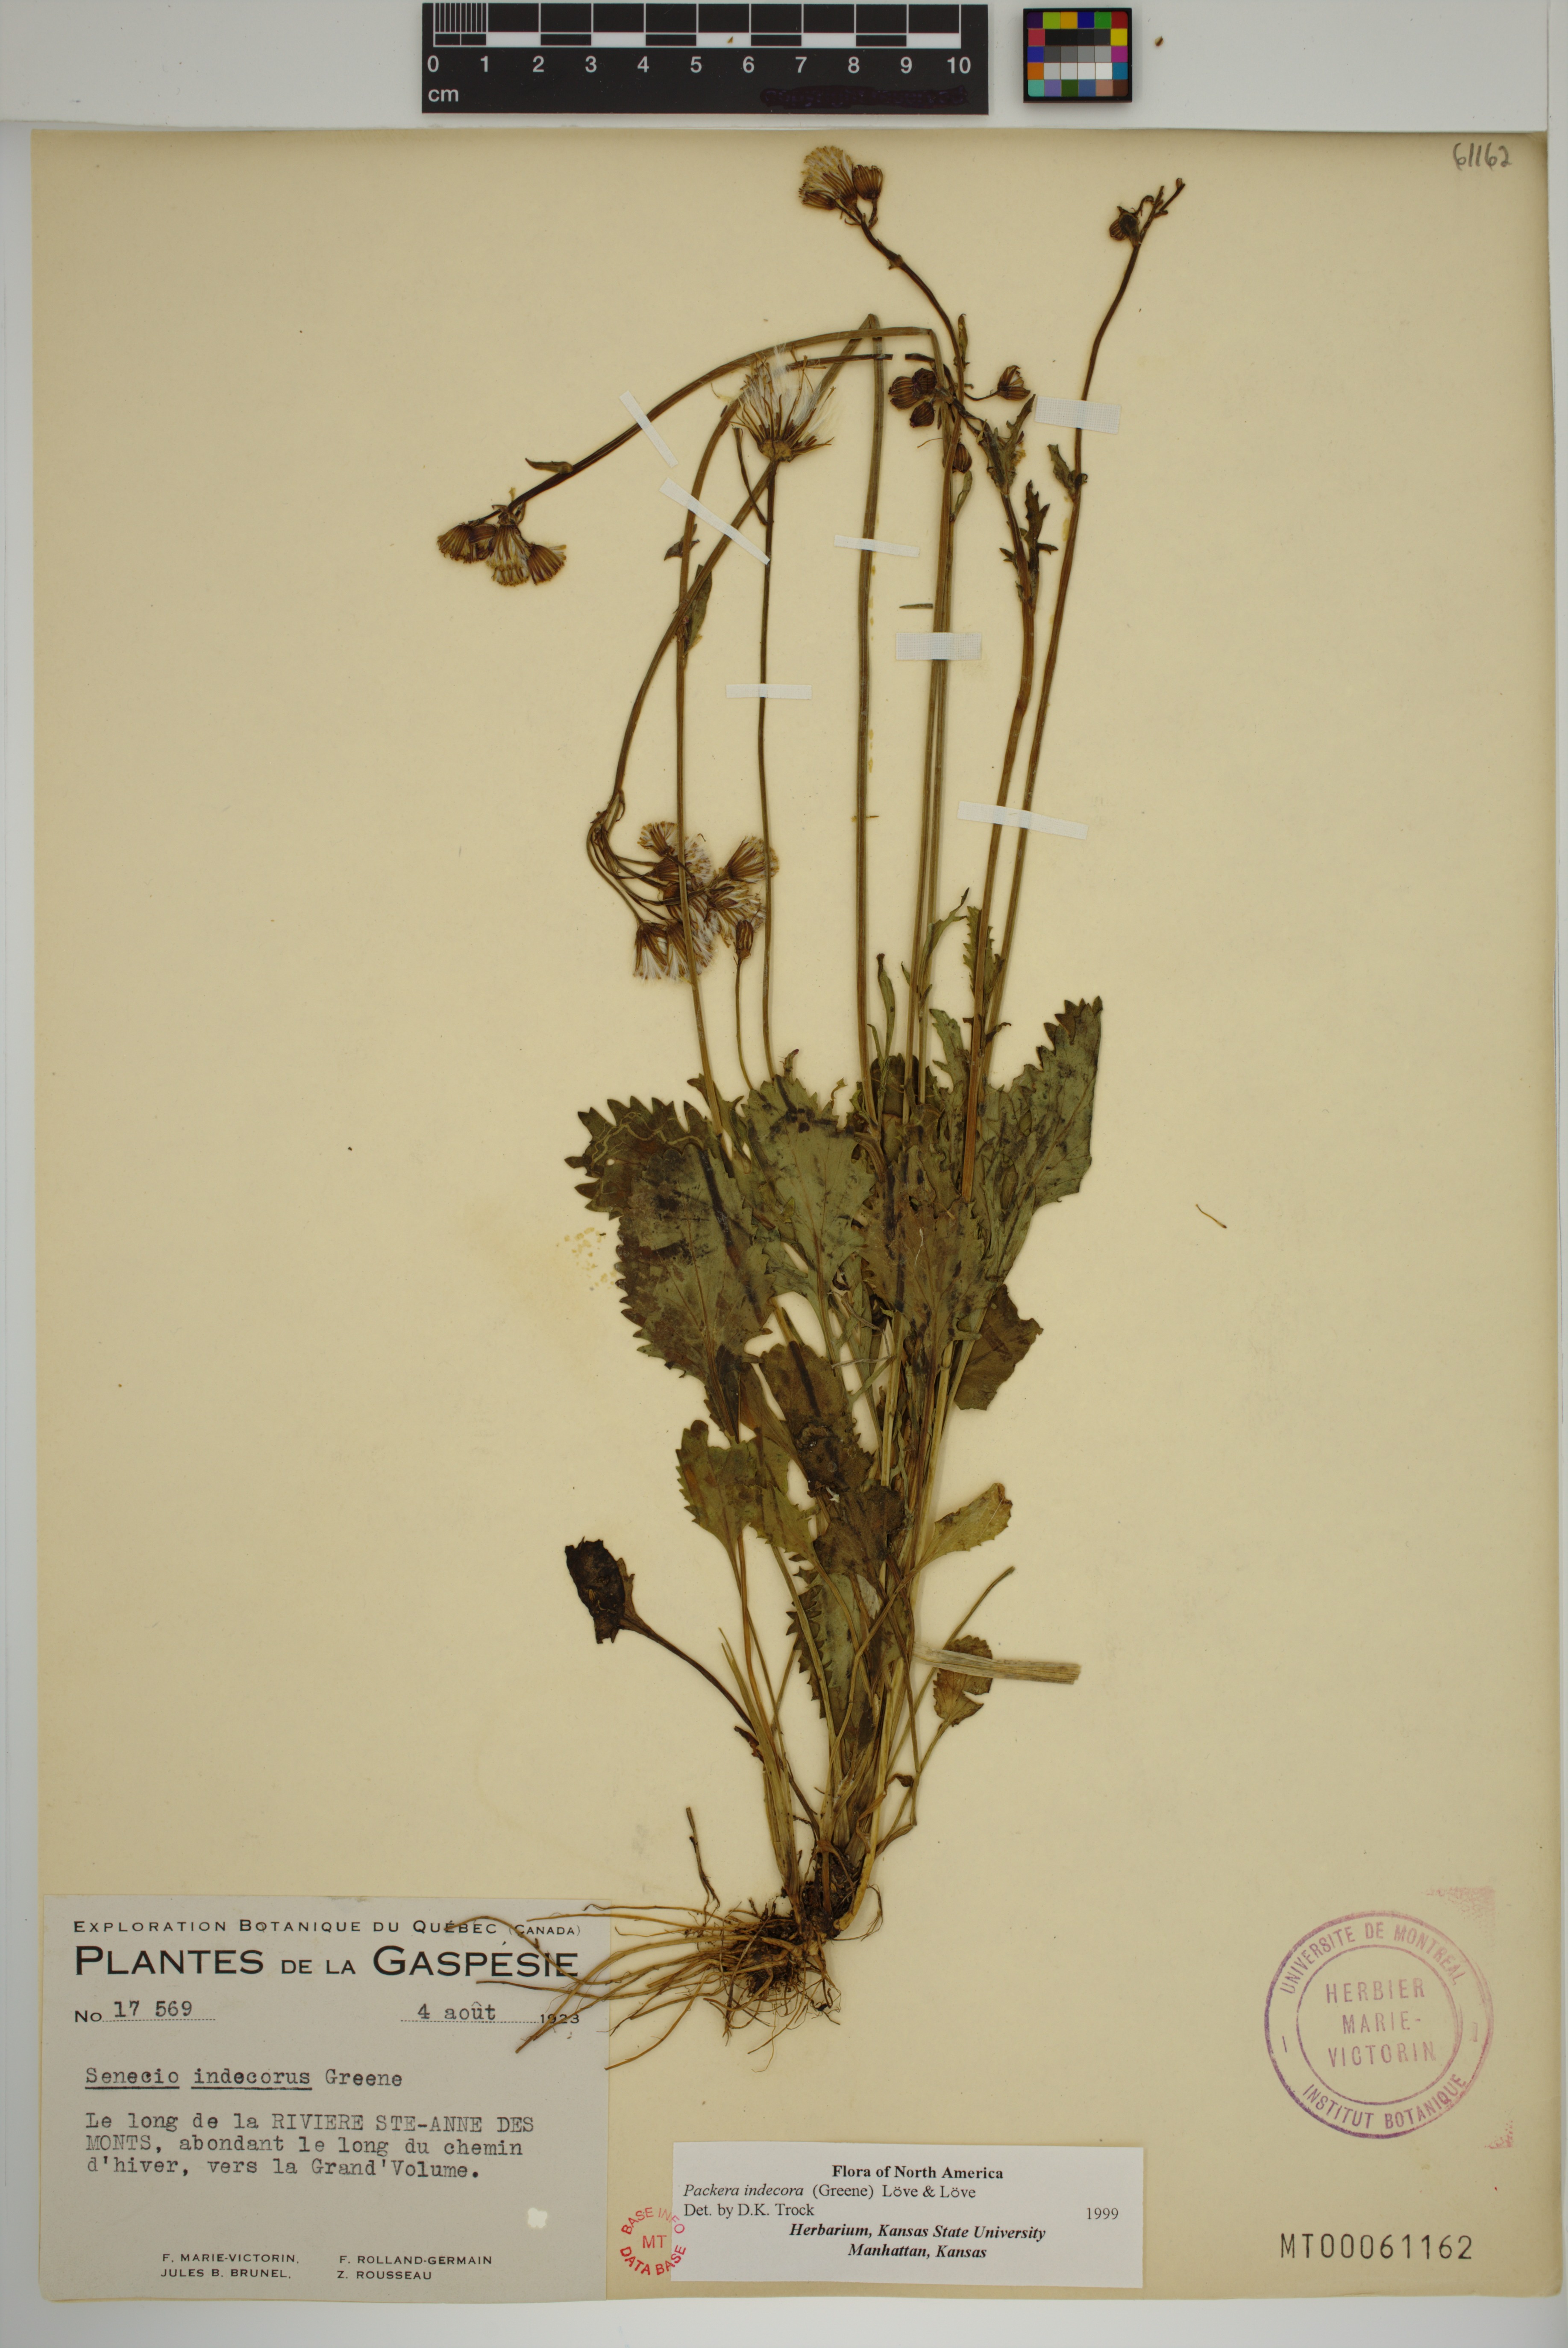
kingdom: Plantae
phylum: Tracheophyta
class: Magnoliopsida
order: Asterales
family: Asteraceae
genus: Packera
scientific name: Packera indecora
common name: Elegant groundsel
